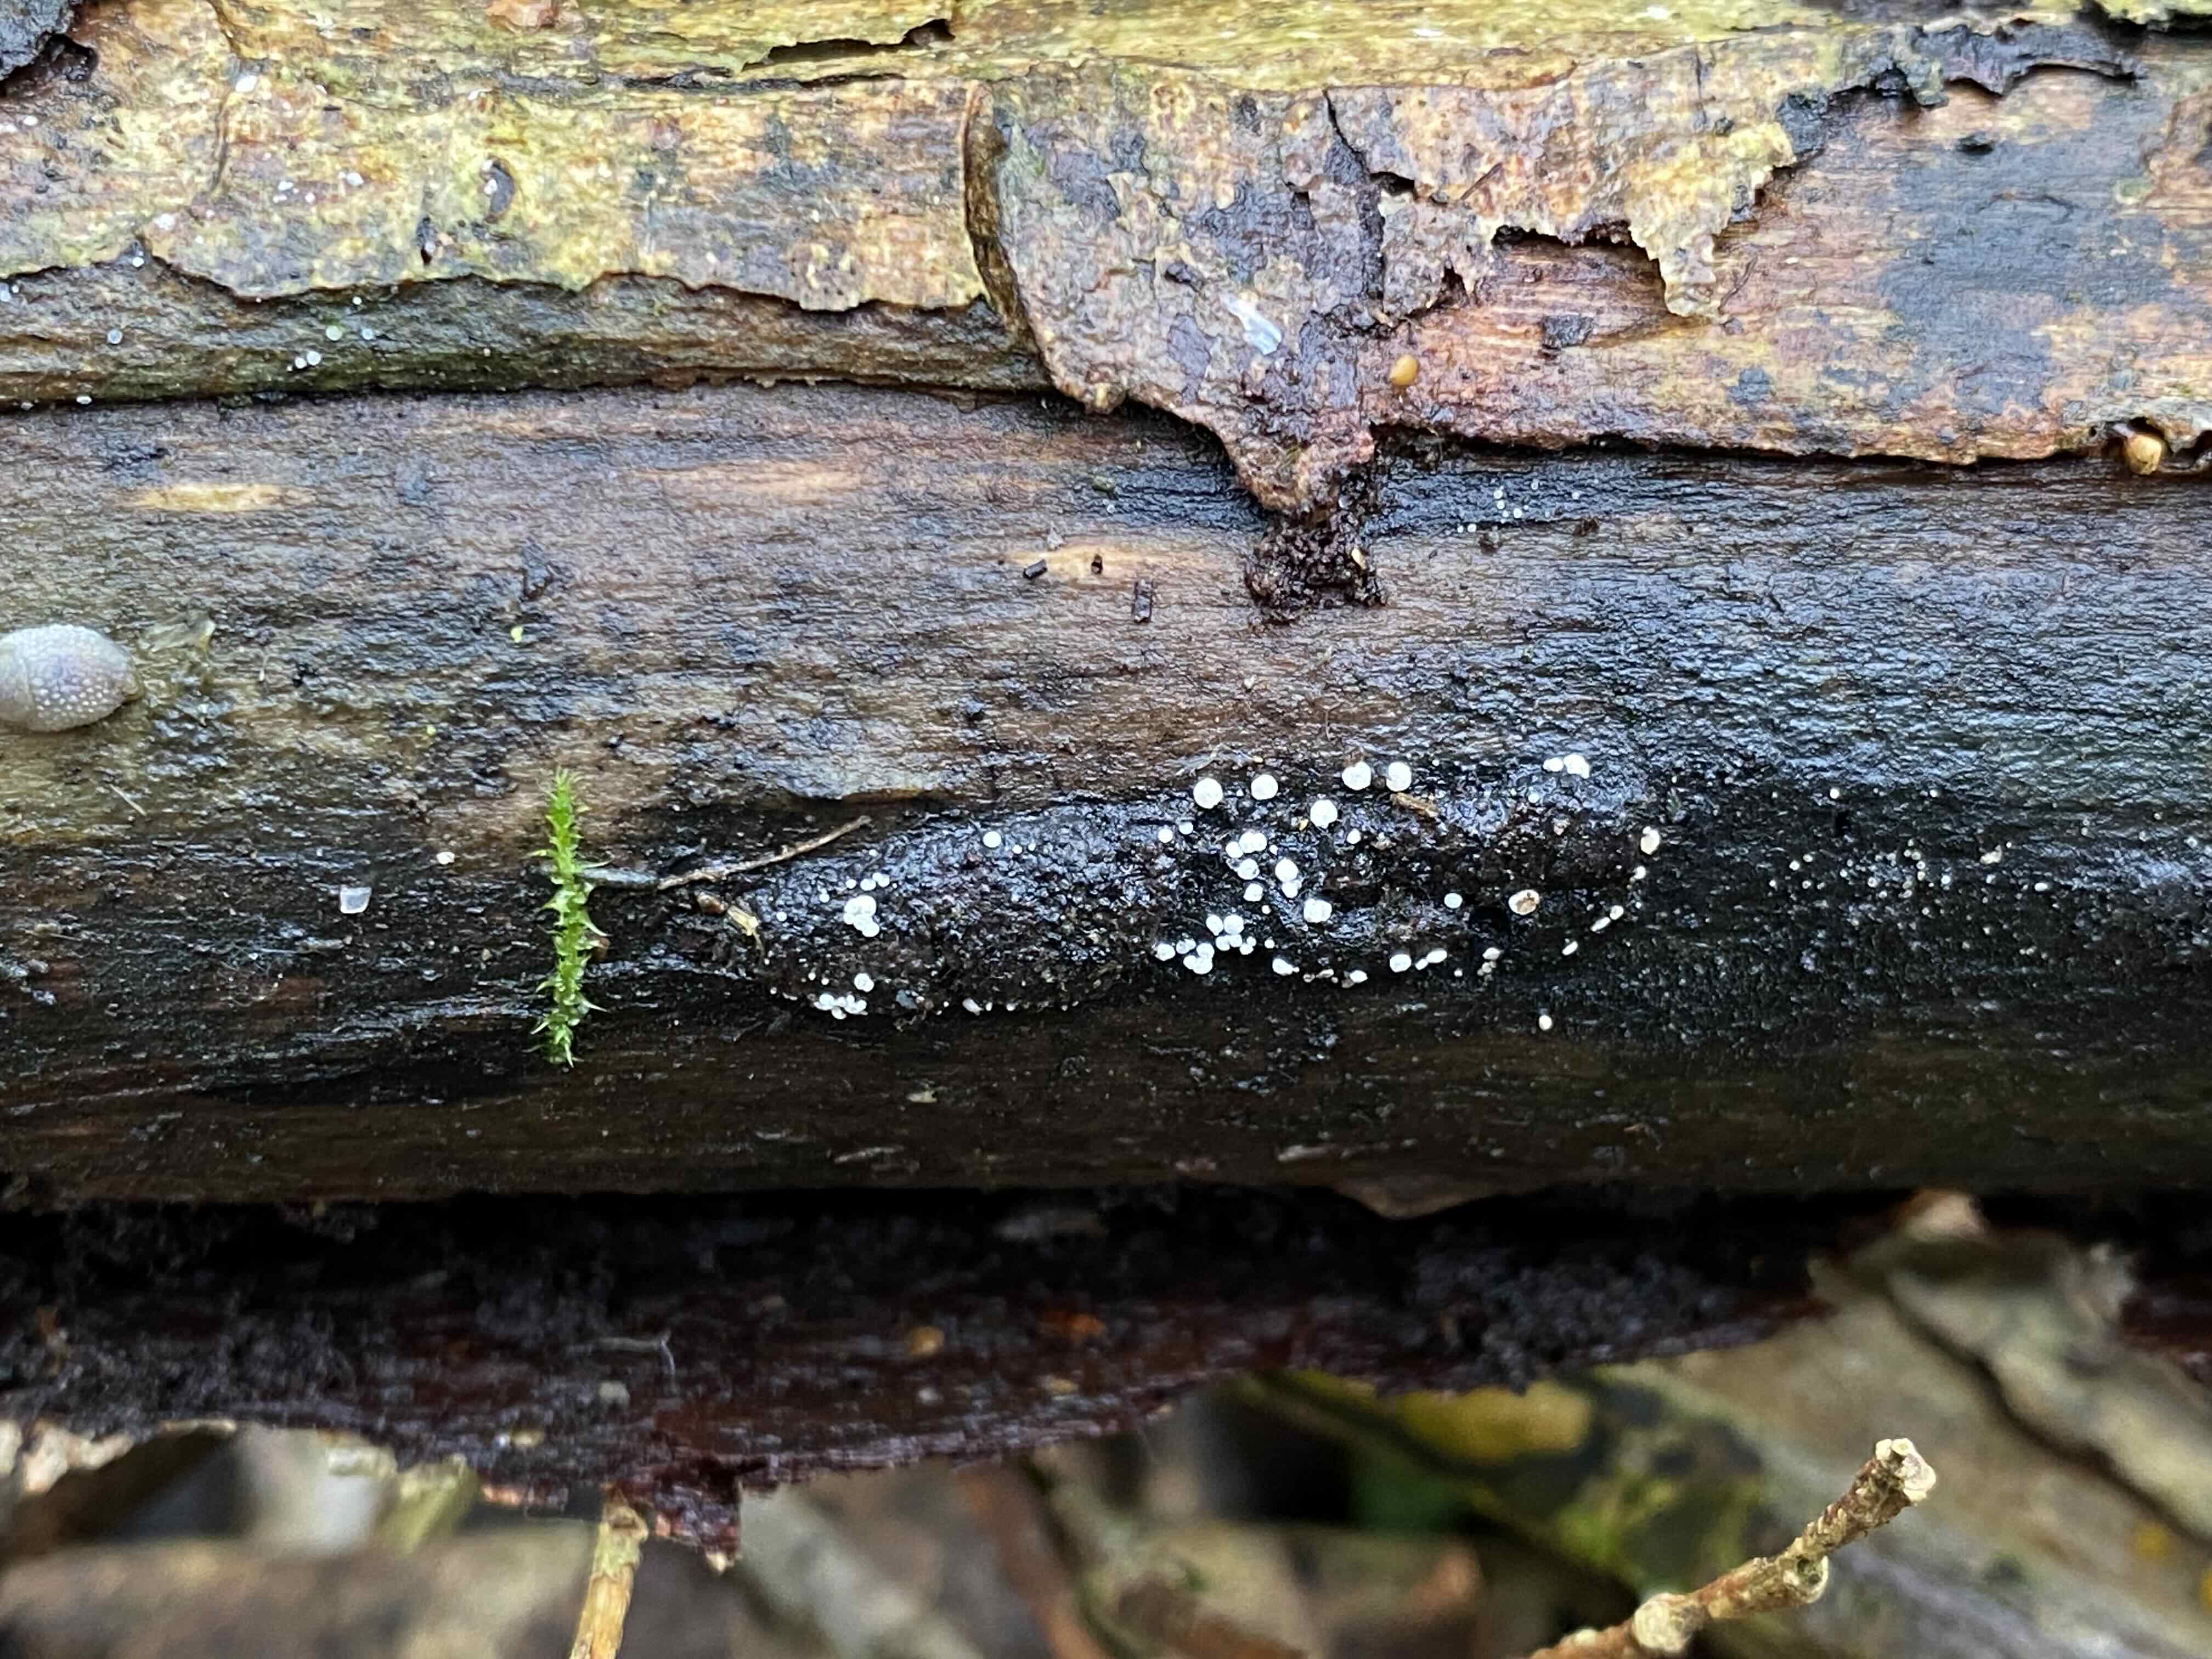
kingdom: Fungi
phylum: Ascomycota
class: Leotiomycetes
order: Helotiales
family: Hyaloscyphaceae
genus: Polydesmia
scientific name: Polydesmia pruinosa
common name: dunskive
